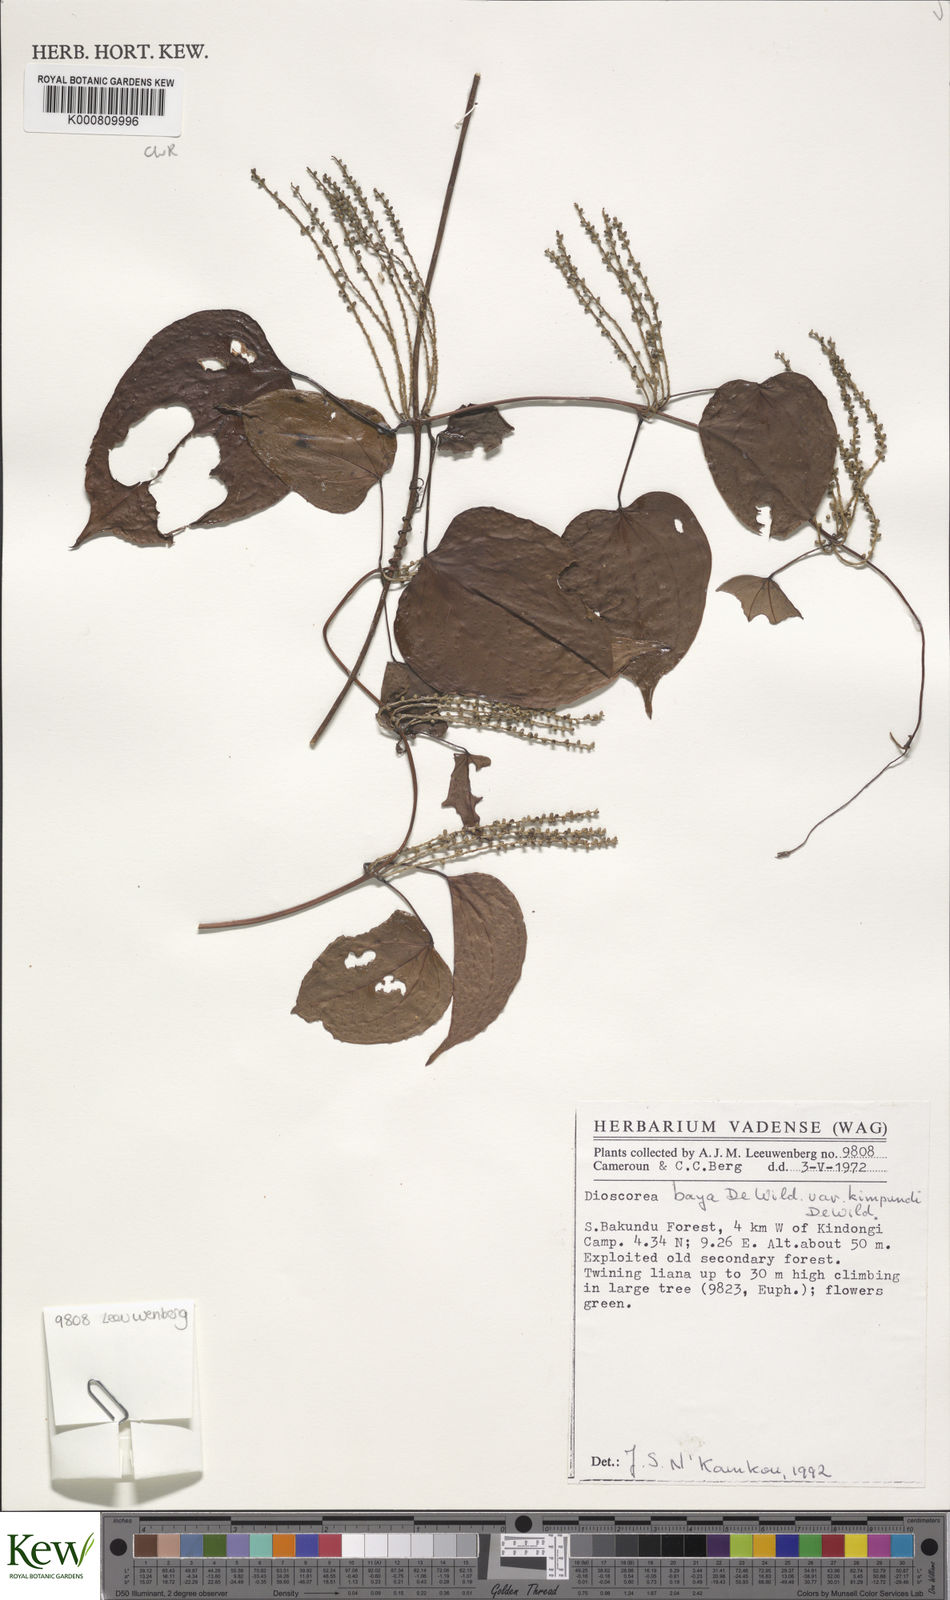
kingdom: Plantae
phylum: Tracheophyta
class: Liliopsida
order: Dioscoreales
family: Dioscoreaceae
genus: Dioscorea
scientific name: Dioscorea baya
